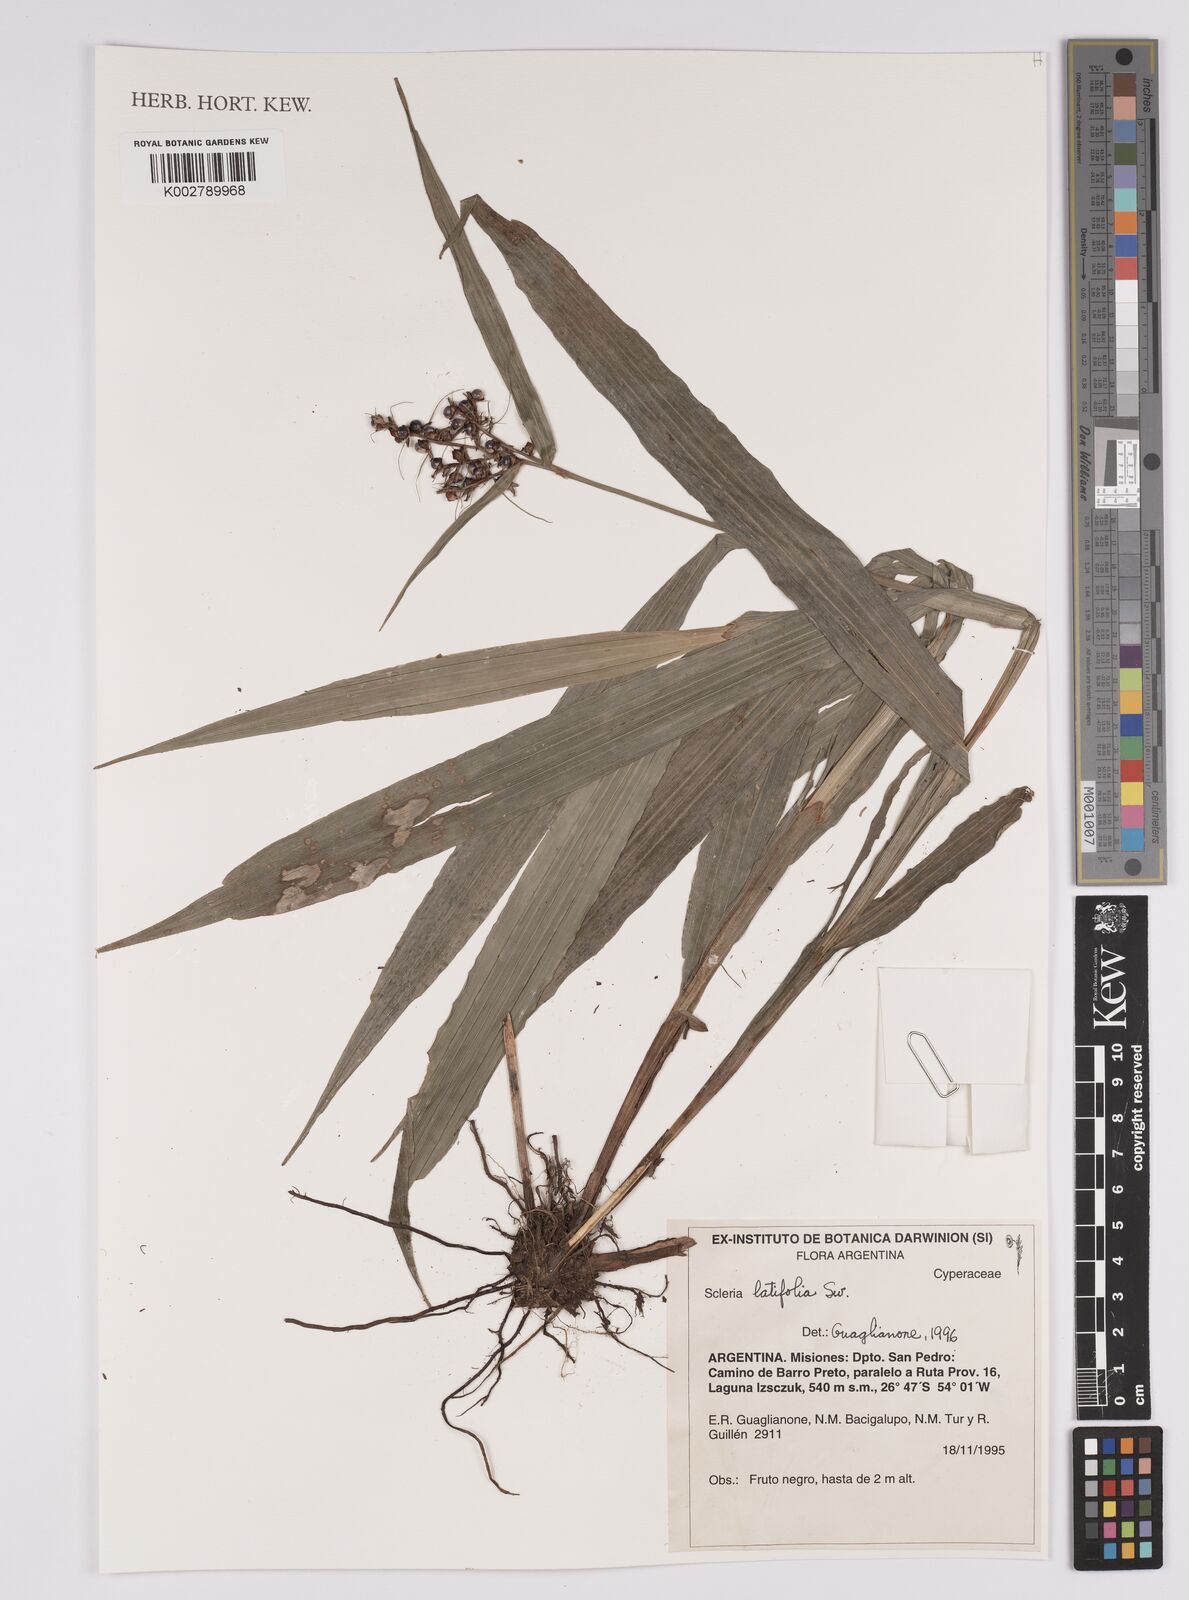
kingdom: Plantae
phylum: Tracheophyta
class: Liliopsida
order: Poales
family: Cyperaceae
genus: Scleria
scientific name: Scleria latifolia
